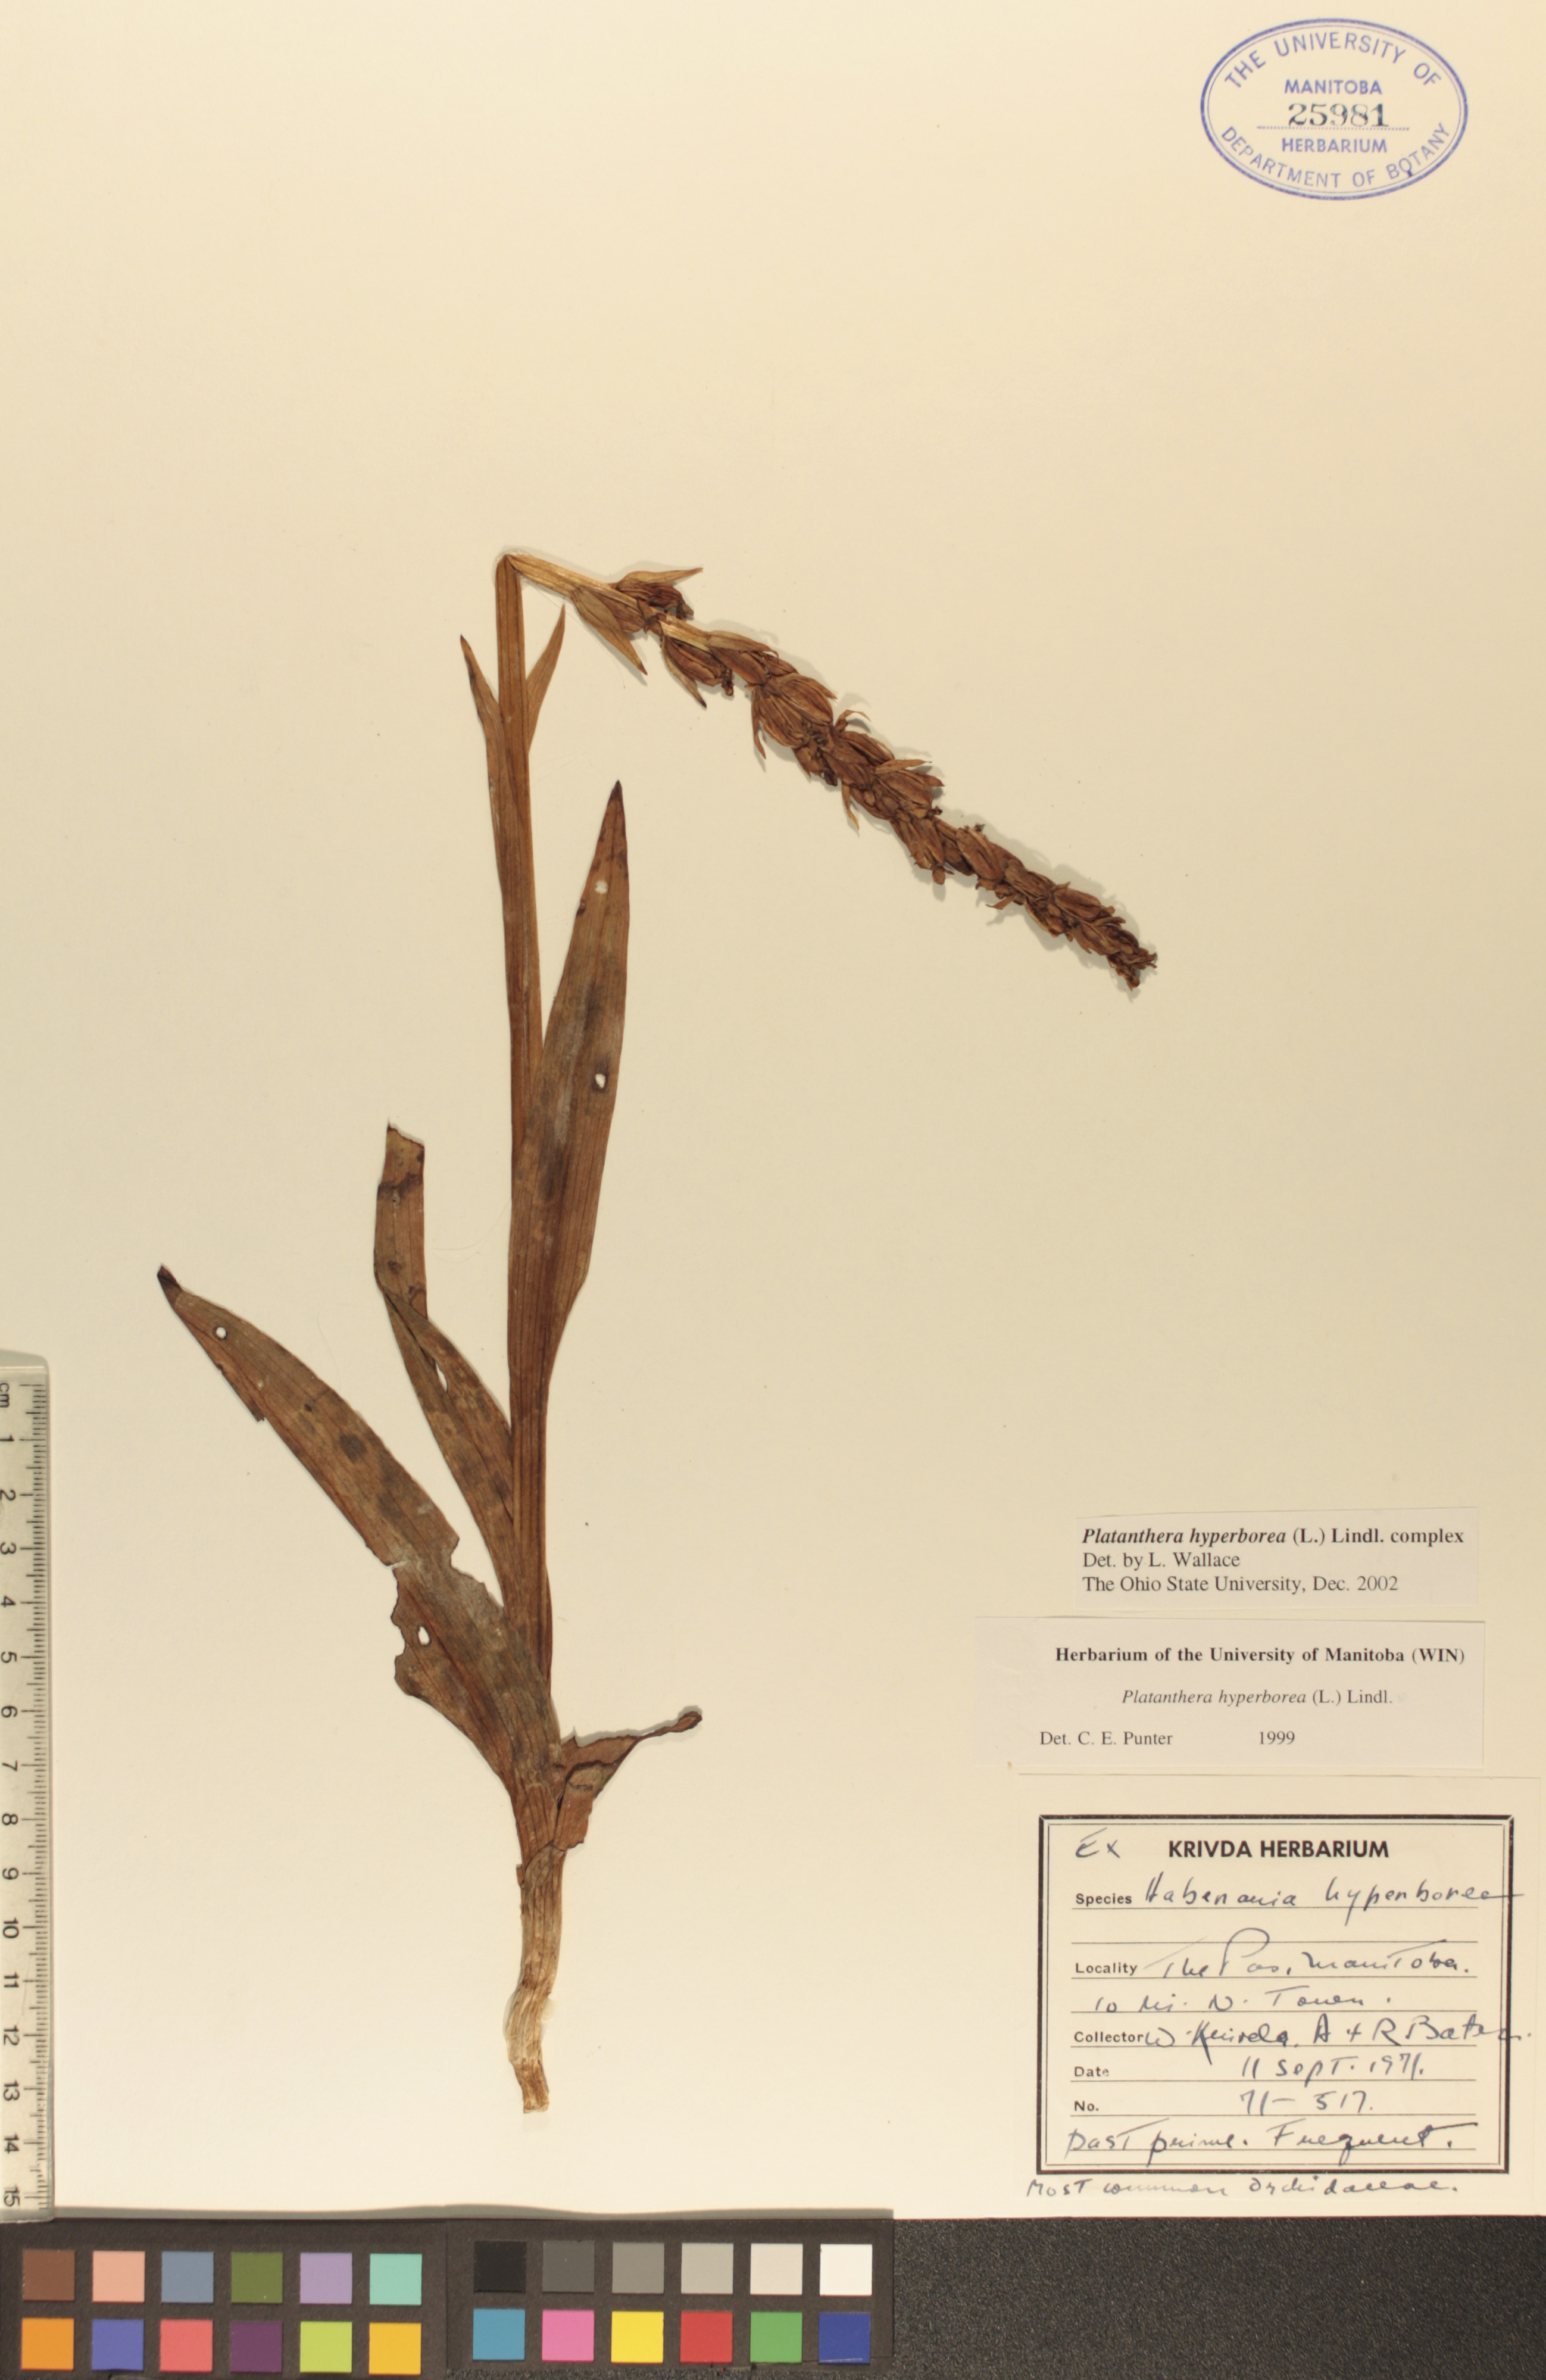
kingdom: Plantae
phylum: Tracheophyta
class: Liliopsida
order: Asparagales
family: Orchidaceae
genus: Platanthera
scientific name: Platanthera hyperborea
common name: Northern green orchid
